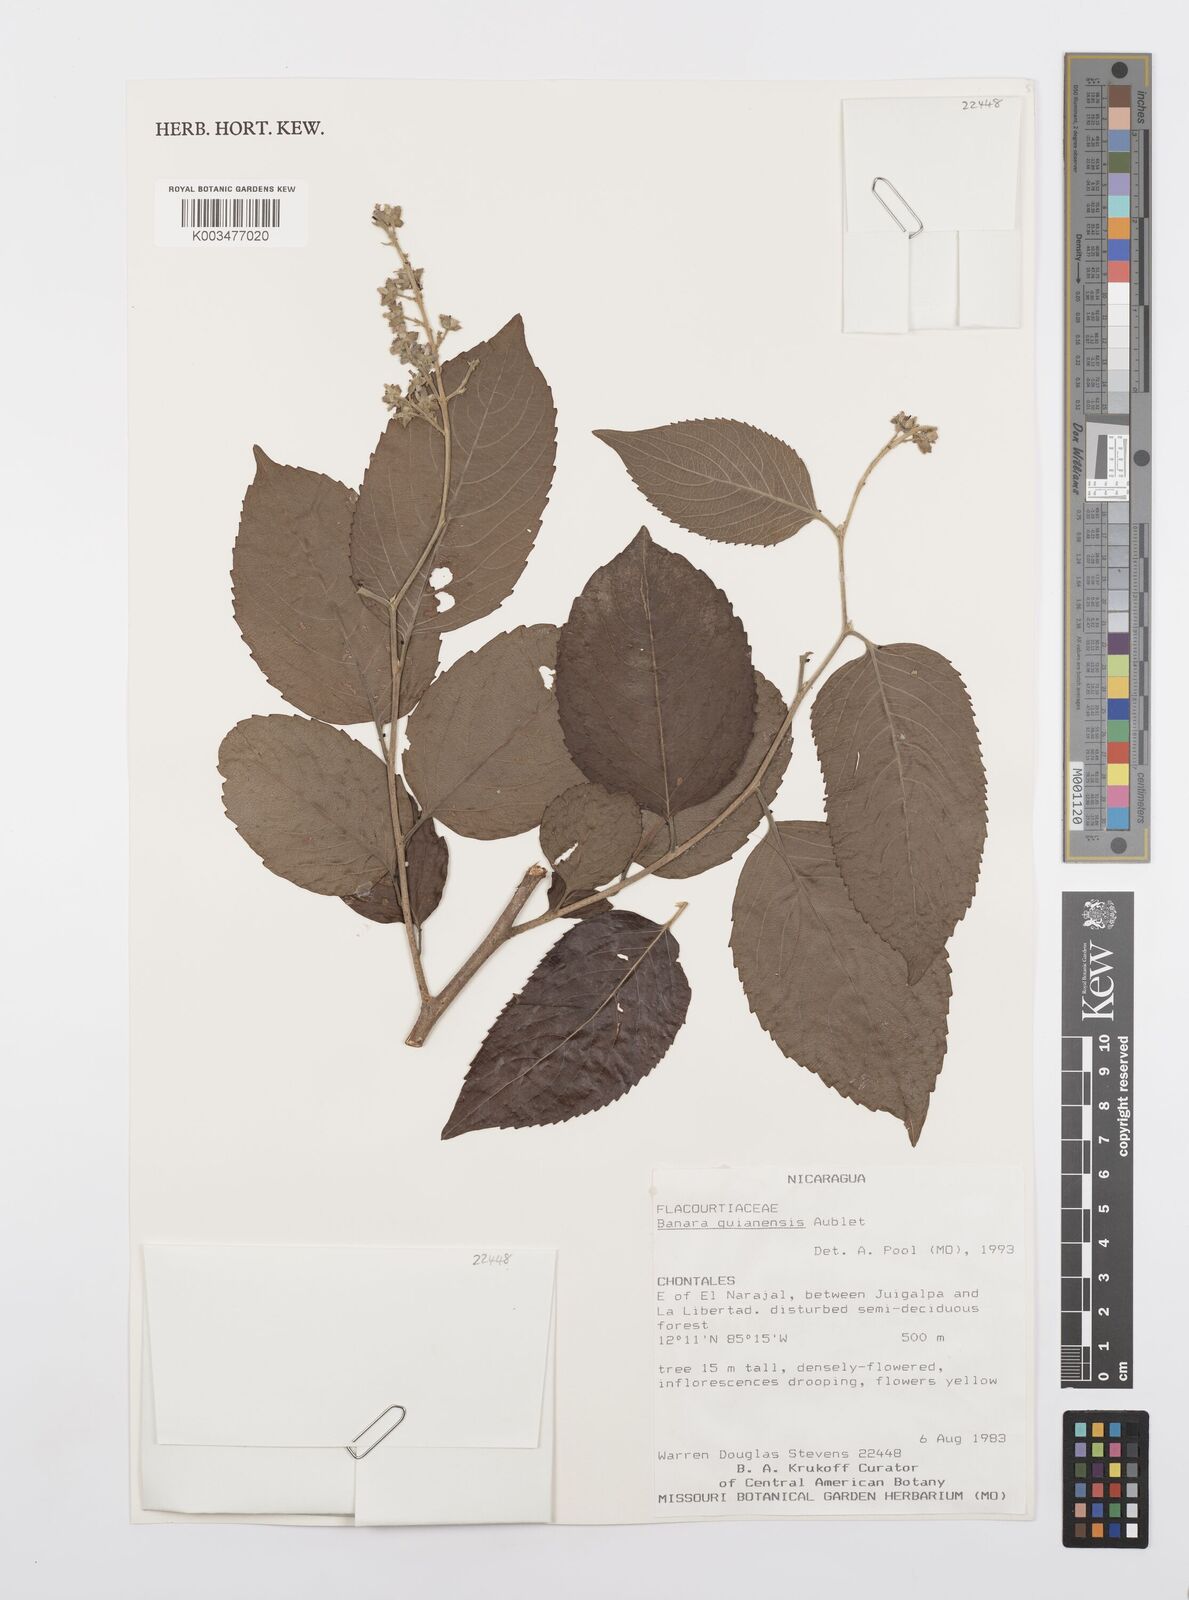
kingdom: Plantae
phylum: Tracheophyta
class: Magnoliopsida
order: Malpighiales
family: Salicaceae
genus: Banara
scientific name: Banara guianensis
